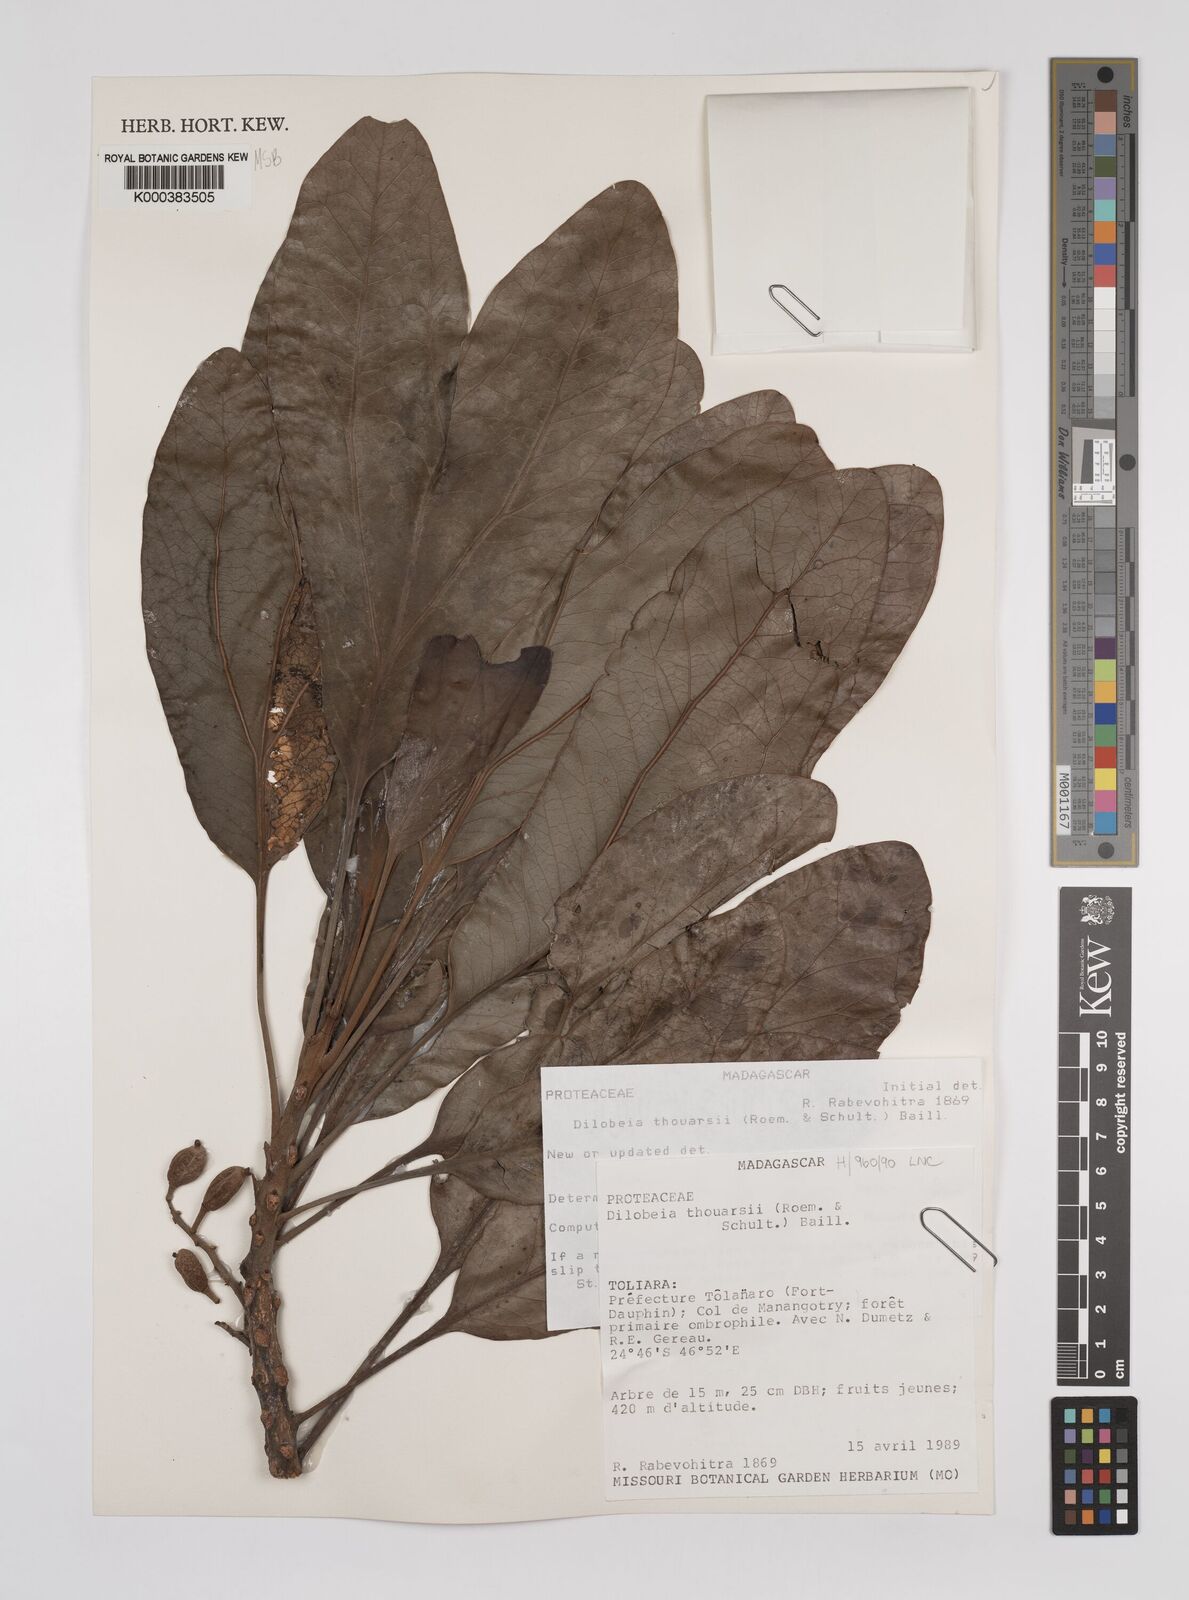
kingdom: Plantae
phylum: Tracheophyta
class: Magnoliopsida
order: Proteales
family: Proteaceae
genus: Dilobeia
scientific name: Dilobeia thouarsii
